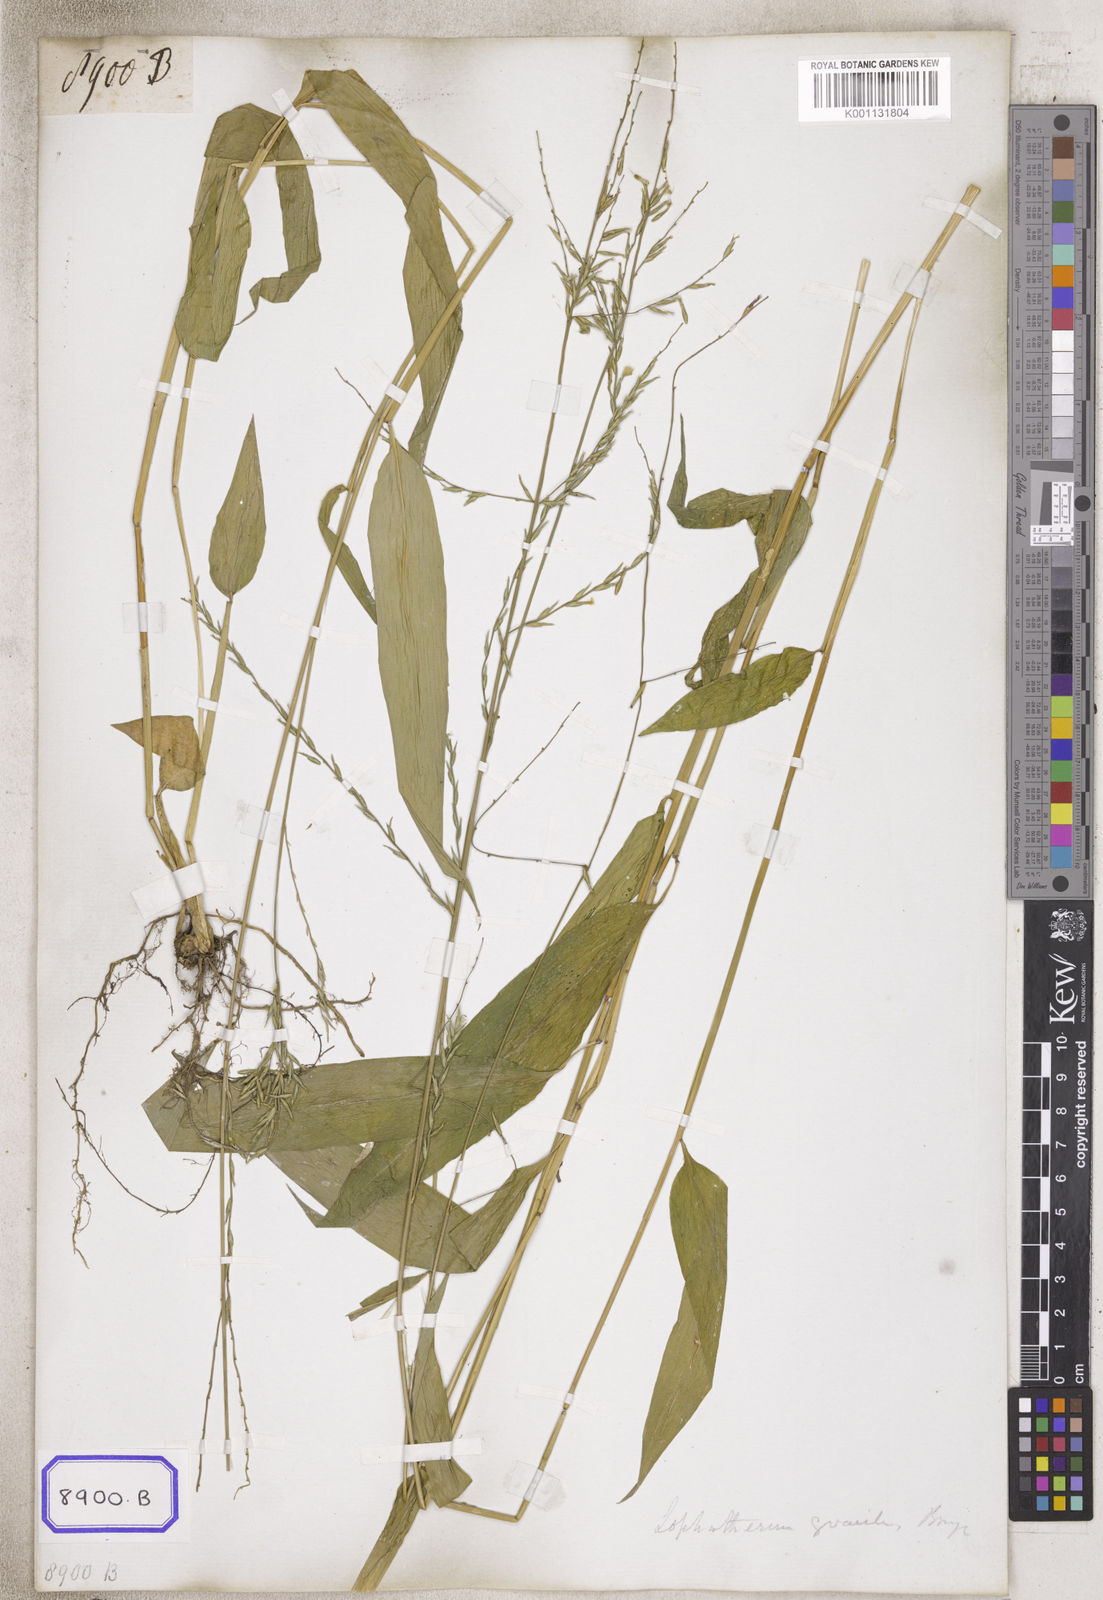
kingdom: Plantae
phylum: Tracheophyta
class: Liliopsida
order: Poales
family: Poaceae
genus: Centotheca
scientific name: Centotheca
